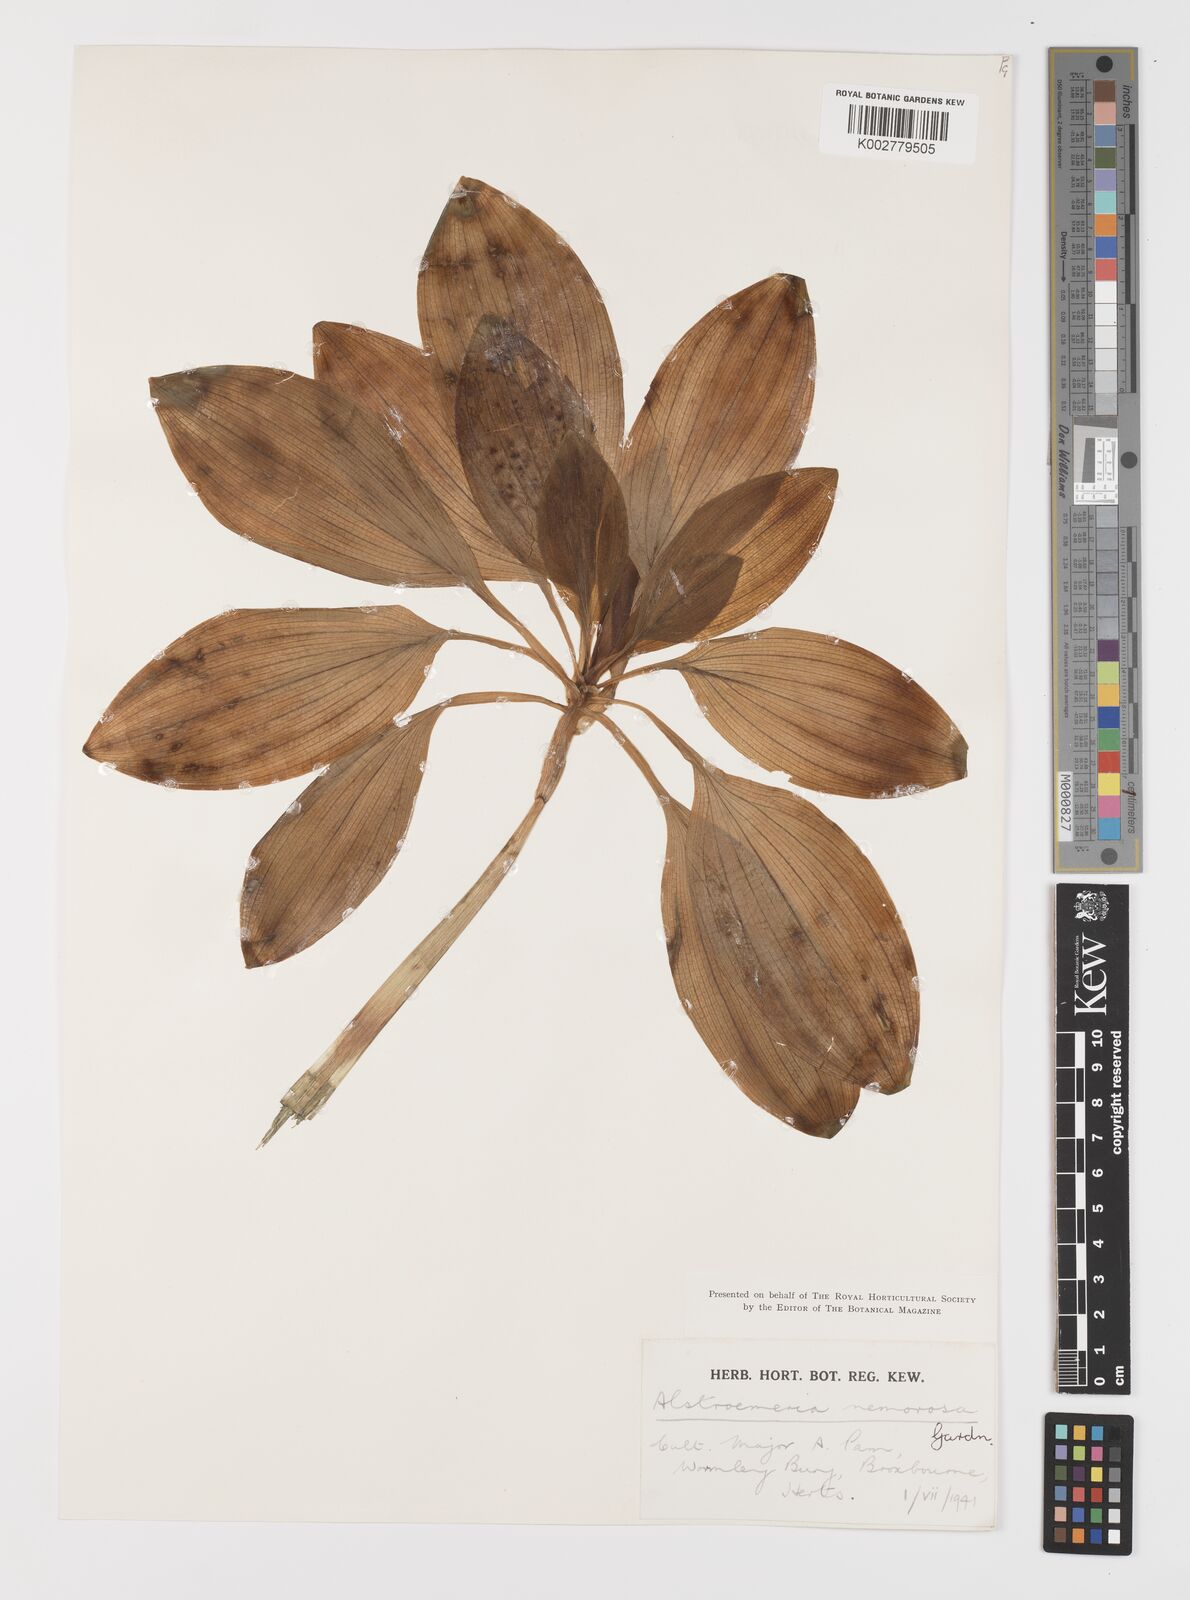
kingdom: Plantae
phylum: Tracheophyta
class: Liliopsida
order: Liliales
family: Alstroemeriaceae
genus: Alstroemeria
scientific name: Alstroemeria cunha
